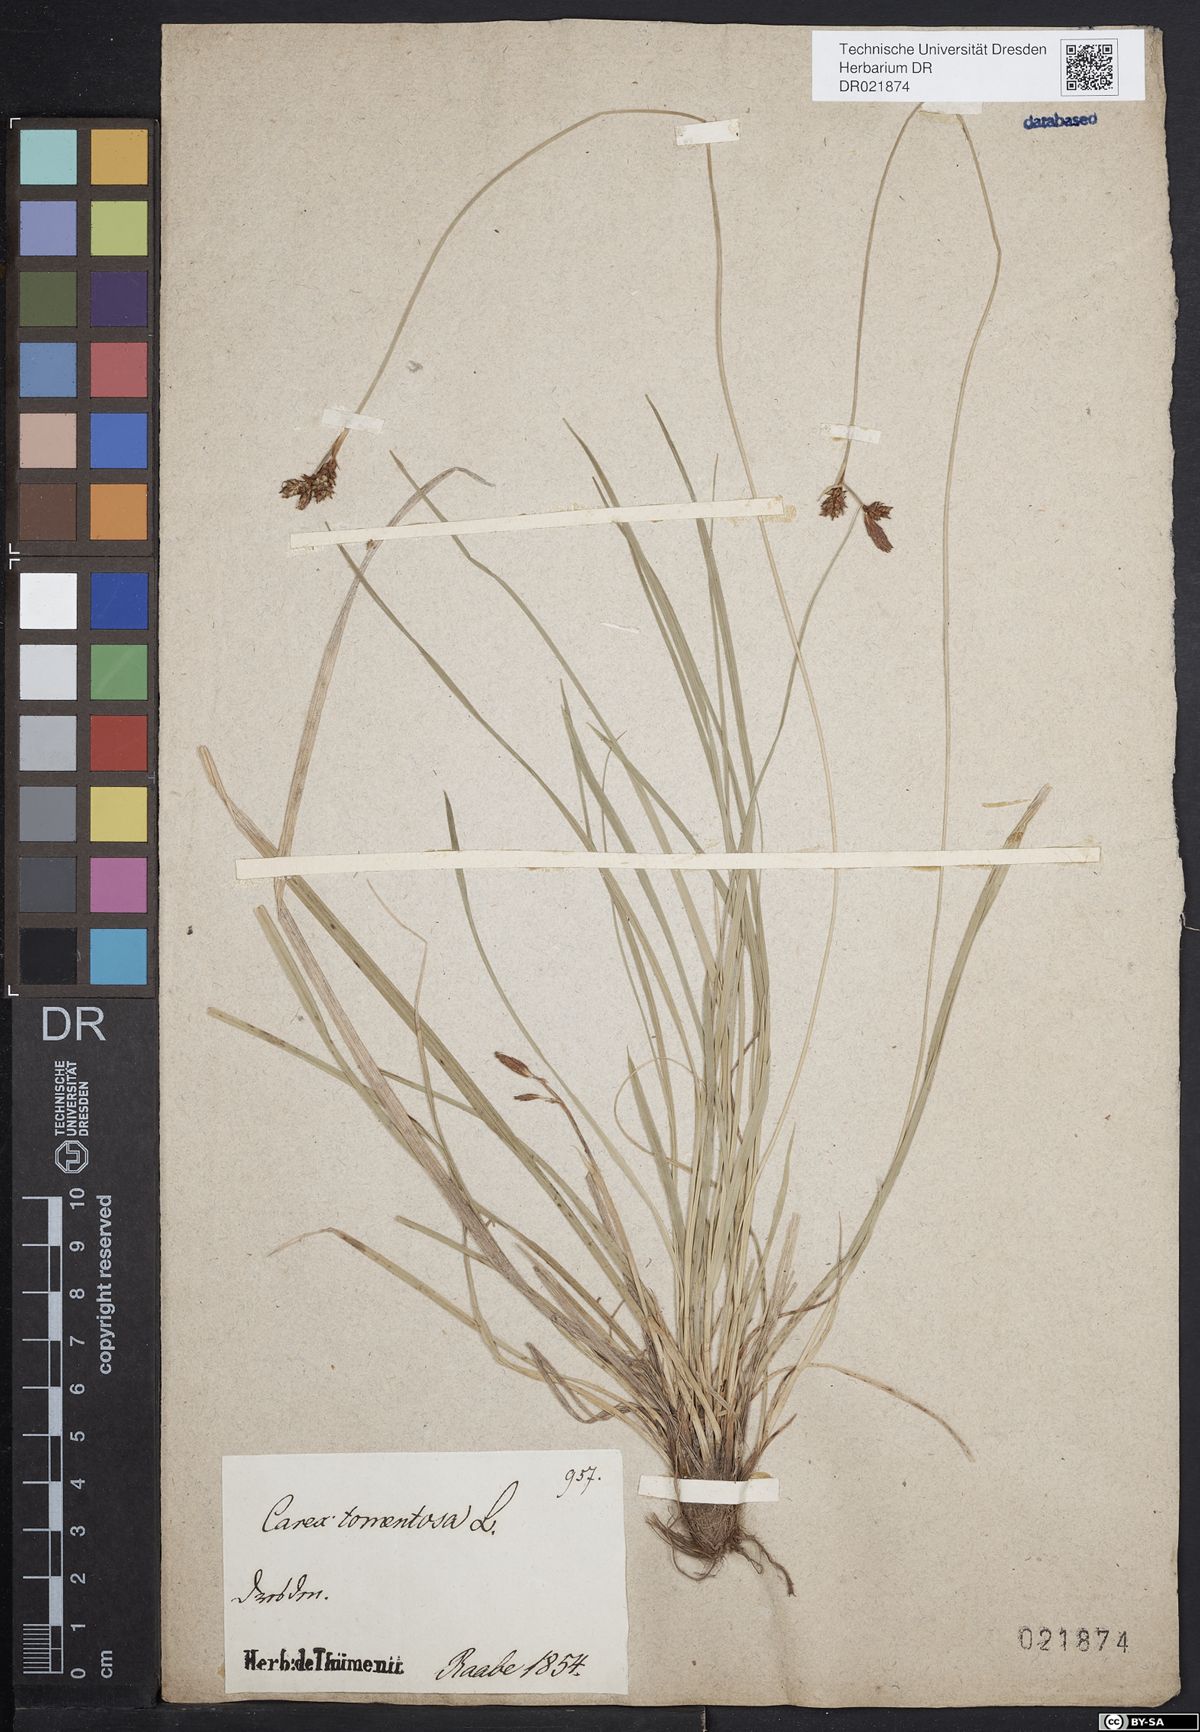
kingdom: Plantae
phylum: Tracheophyta
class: Liliopsida
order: Poales
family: Cyperaceae
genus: Carex
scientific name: Carex tomentosa
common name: Downy-fruited sedge
